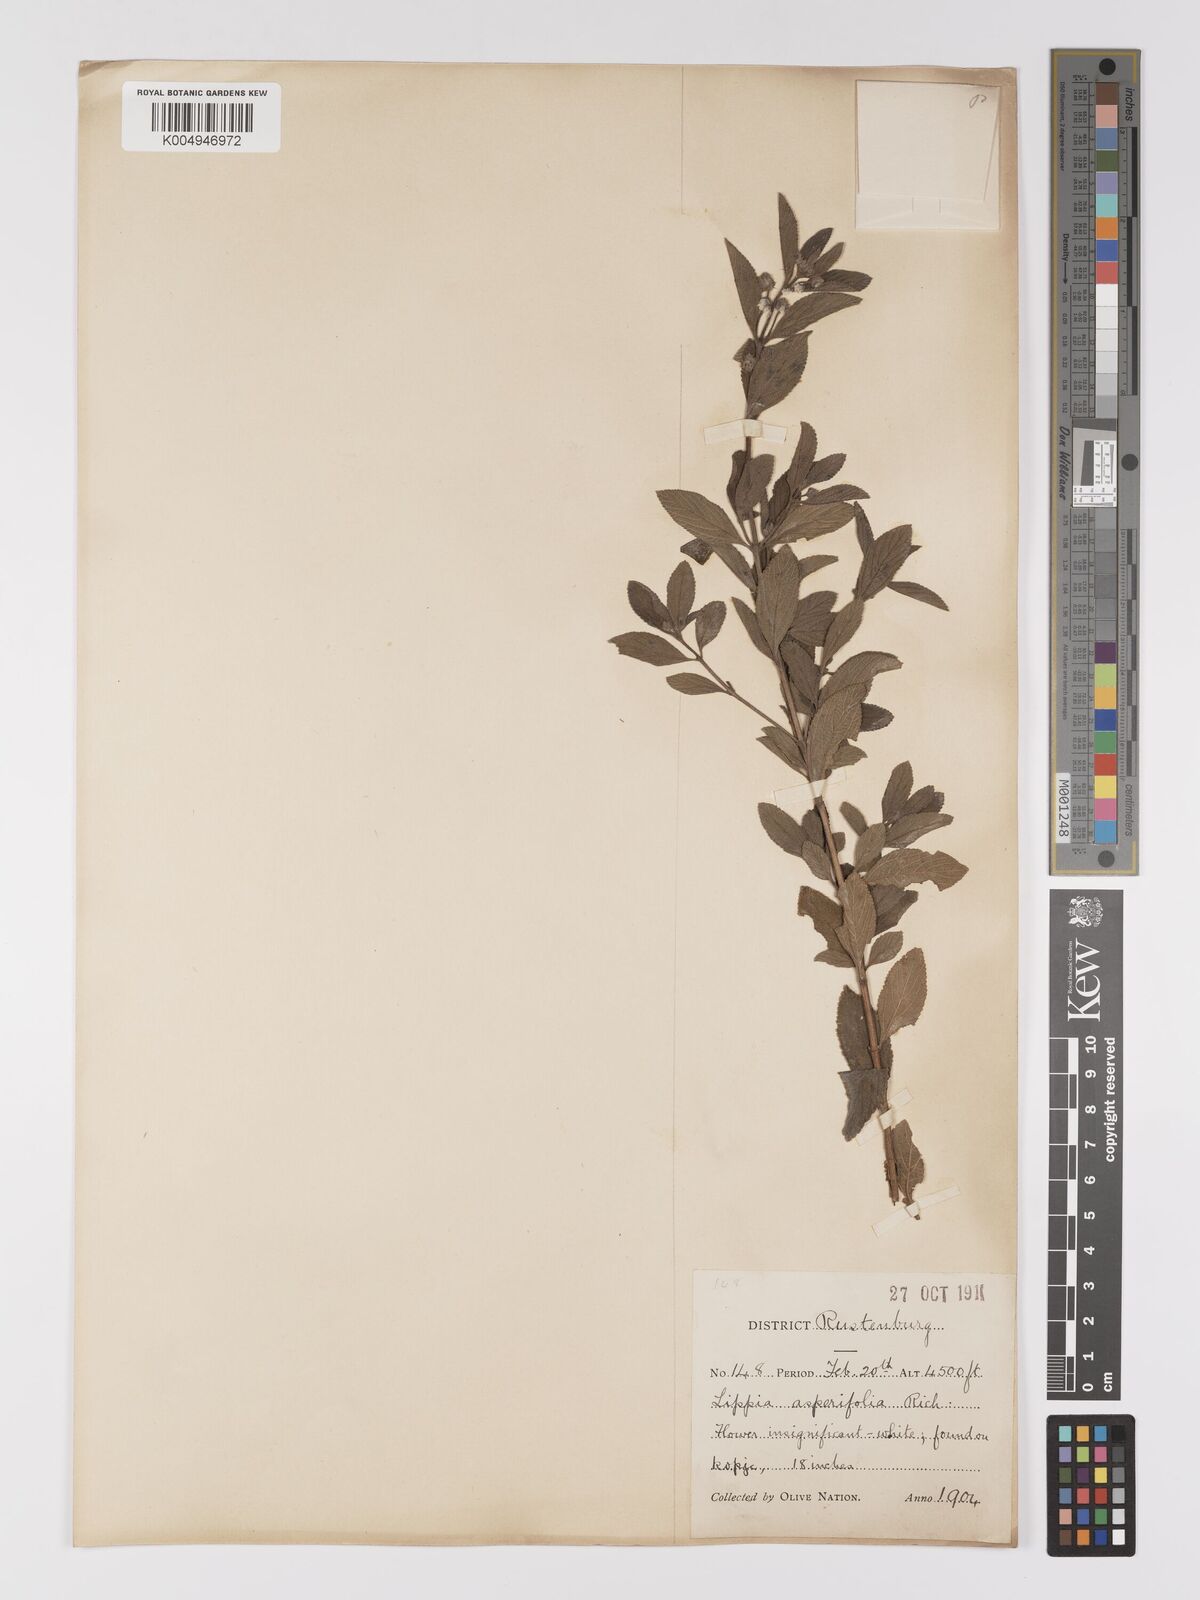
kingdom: Plantae
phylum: Tracheophyta
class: Magnoliopsida
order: Lamiales
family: Verbenaceae
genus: Lippia
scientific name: Lippia
